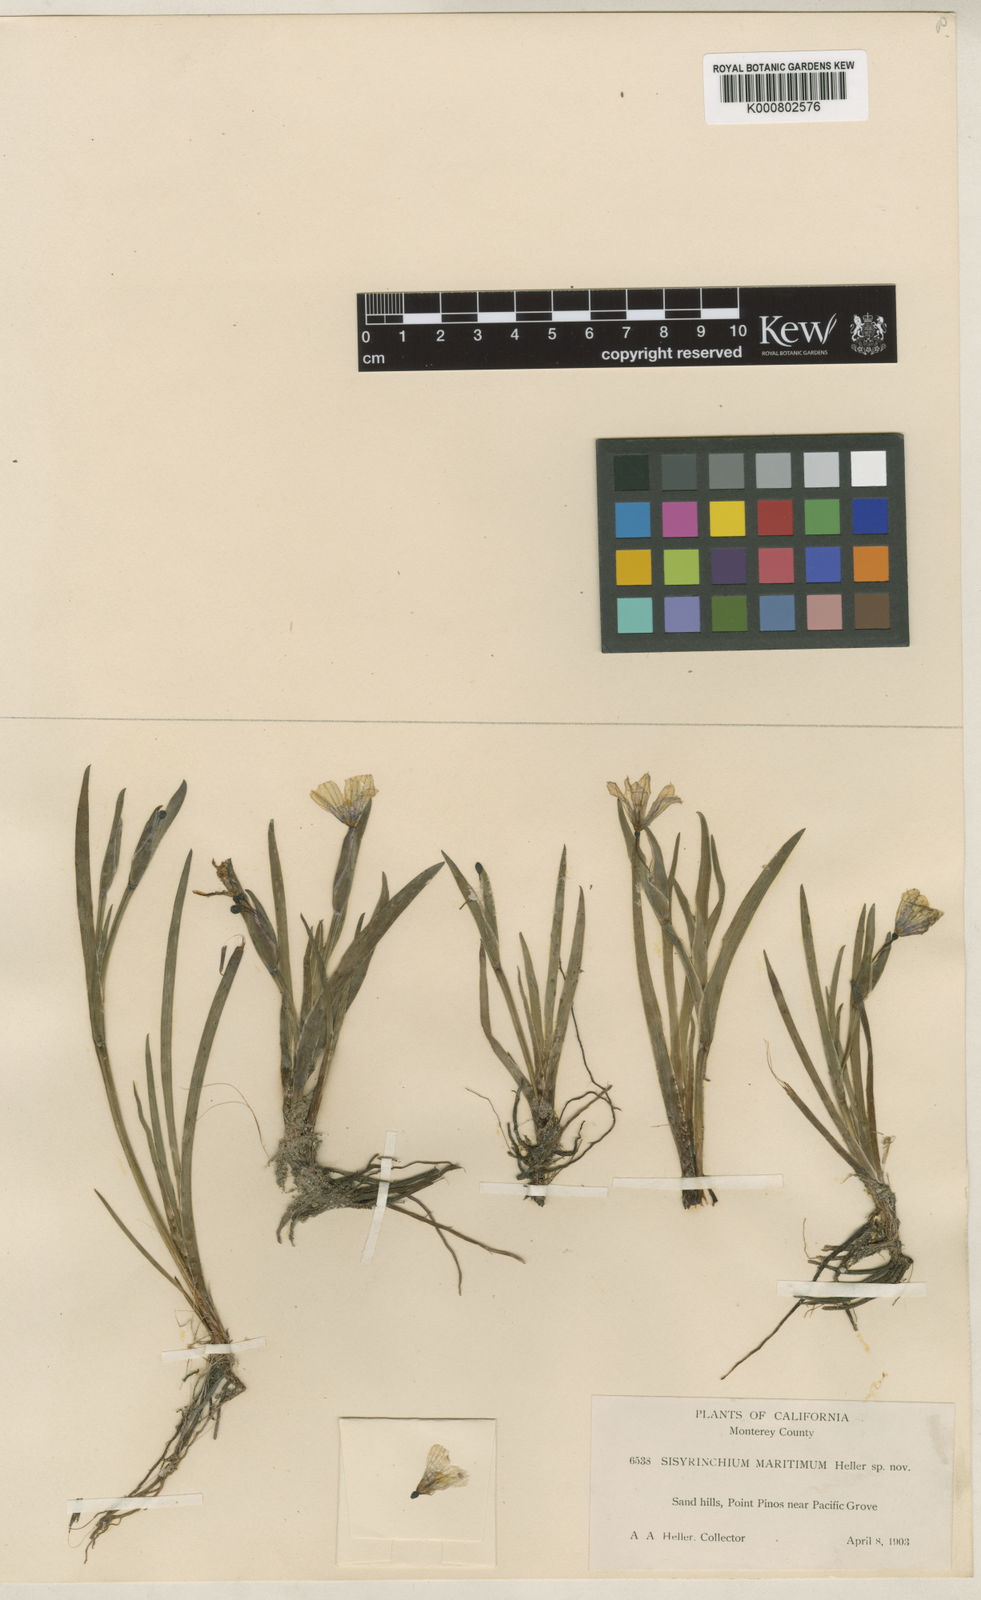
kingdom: Plantae
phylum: Tracheophyta
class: Liliopsida
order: Asparagales
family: Iridaceae
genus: Sisyrinchium
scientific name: Sisyrinchium bellum
